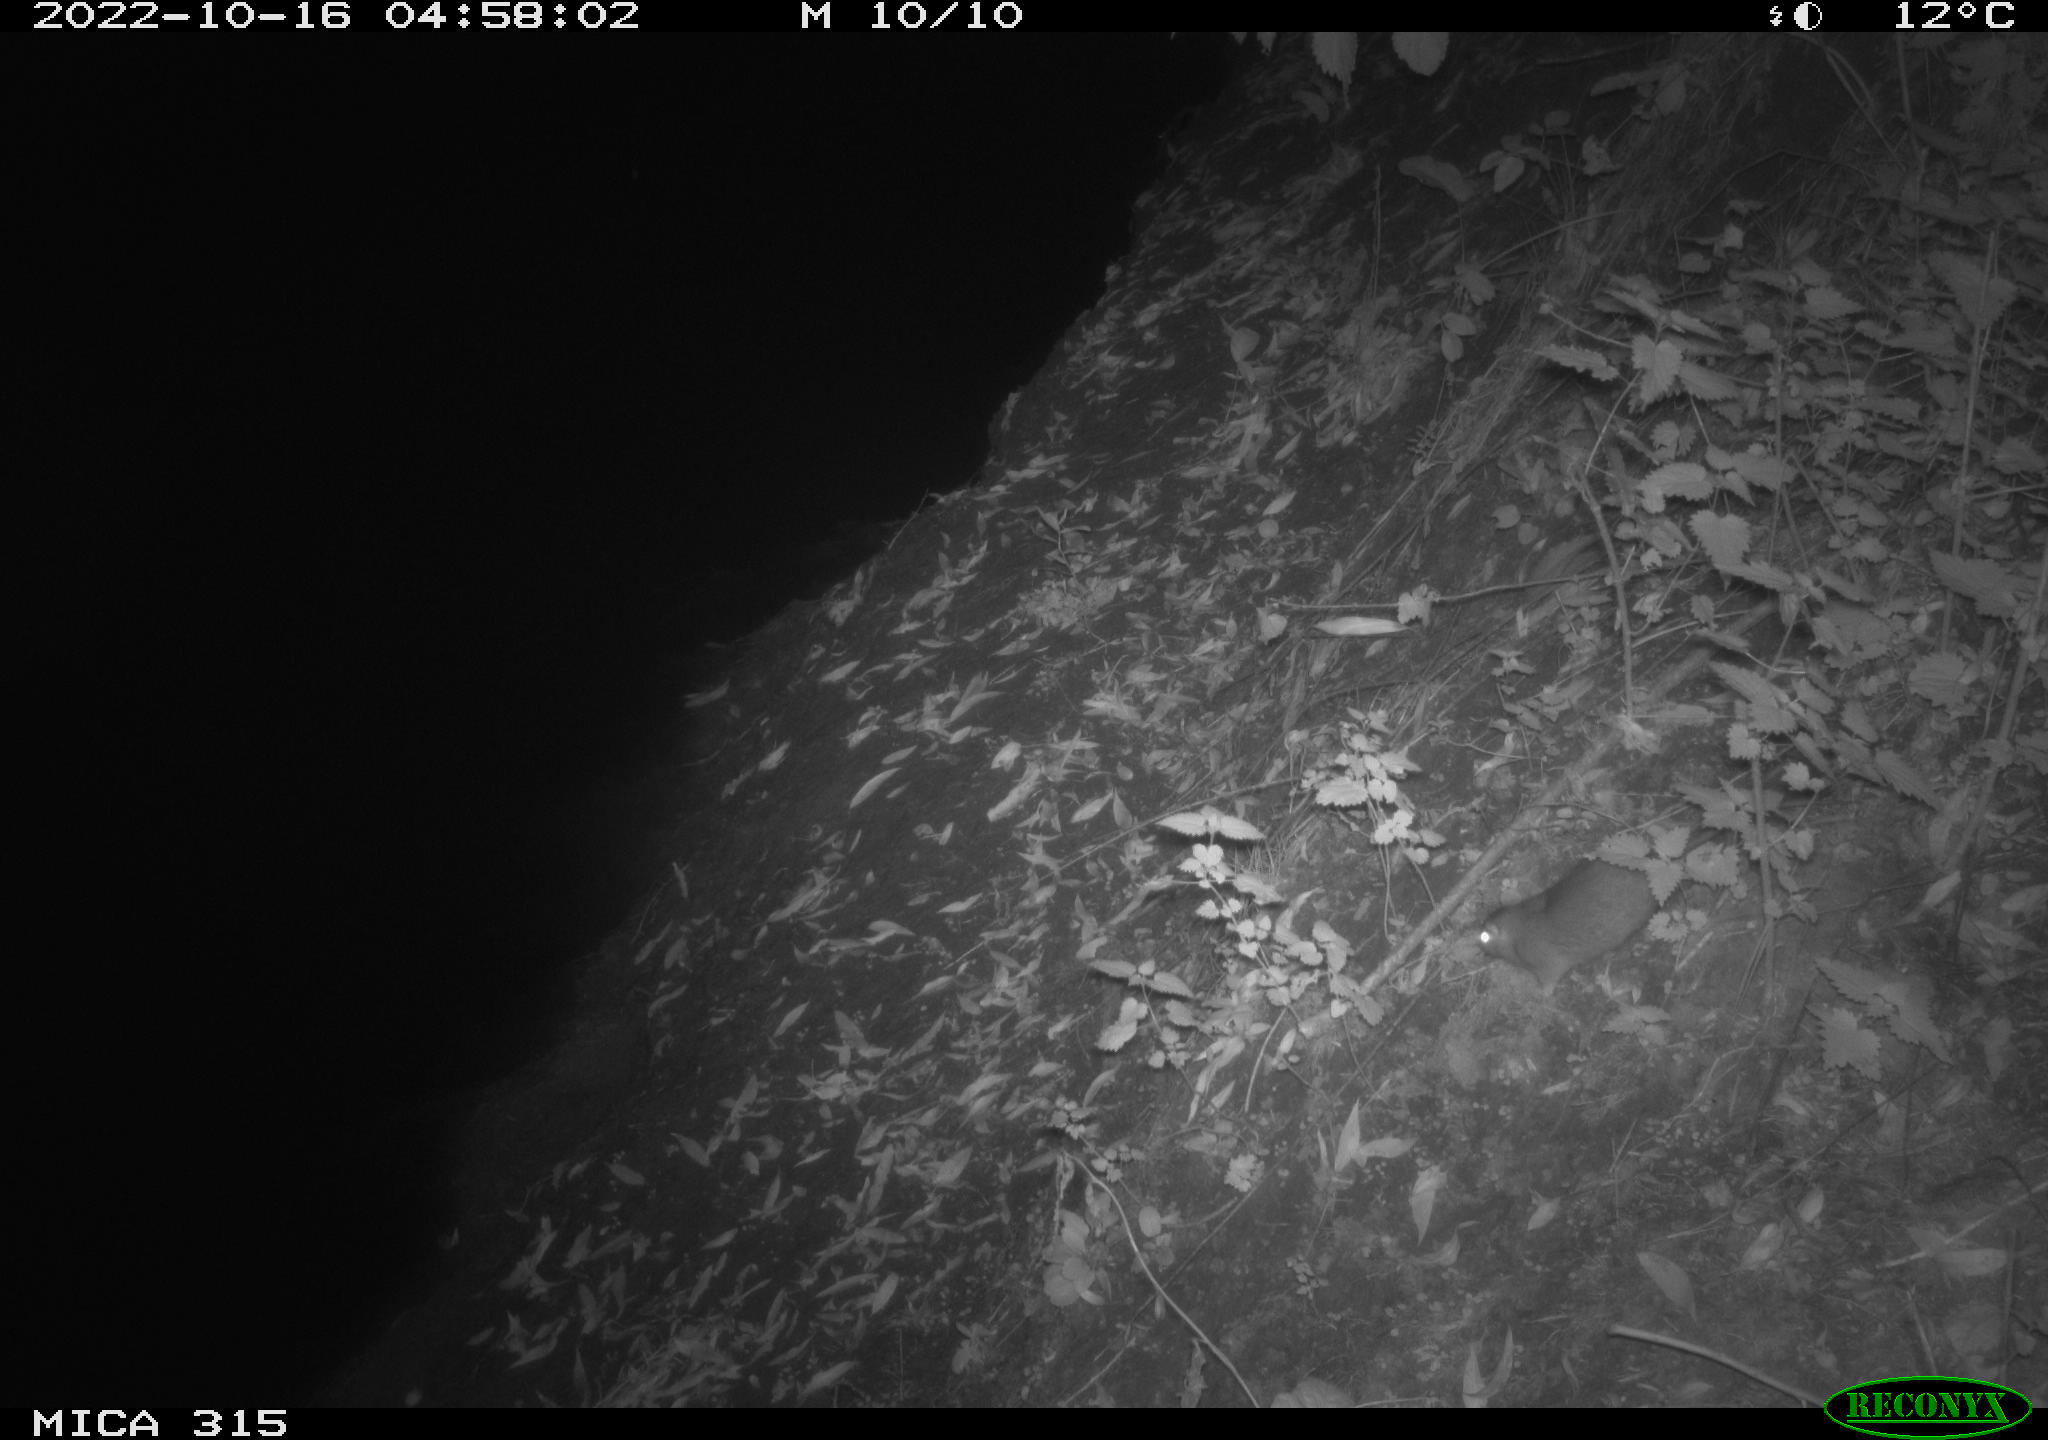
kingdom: Animalia
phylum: Chordata
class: Mammalia
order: Rodentia
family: Muridae
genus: Rattus
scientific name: Rattus norvegicus
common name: Brown rat
